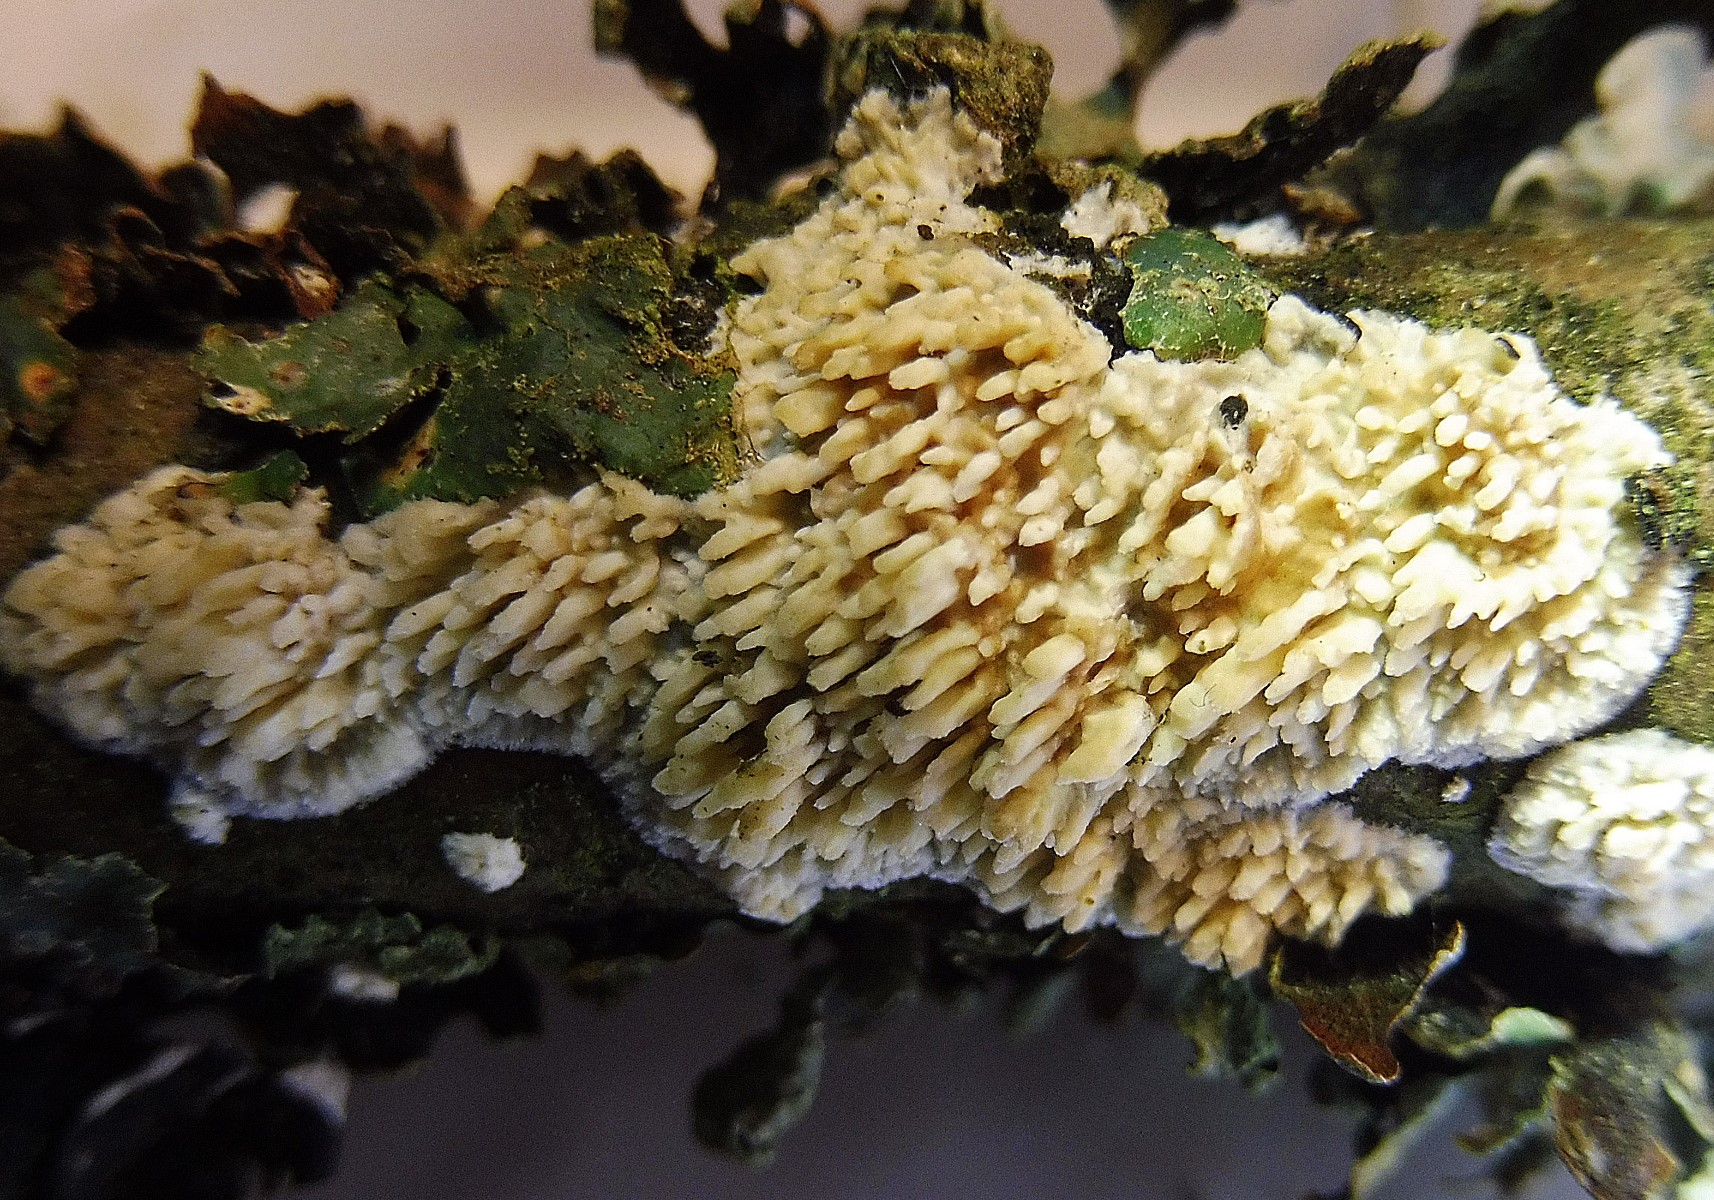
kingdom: Fungi
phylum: Basidiomycota
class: Agaricomycetes
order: Hymenochaetales
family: Schizoporaceae
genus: Xylodon
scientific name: Xylodon radula
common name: grovtandet kalkskind
